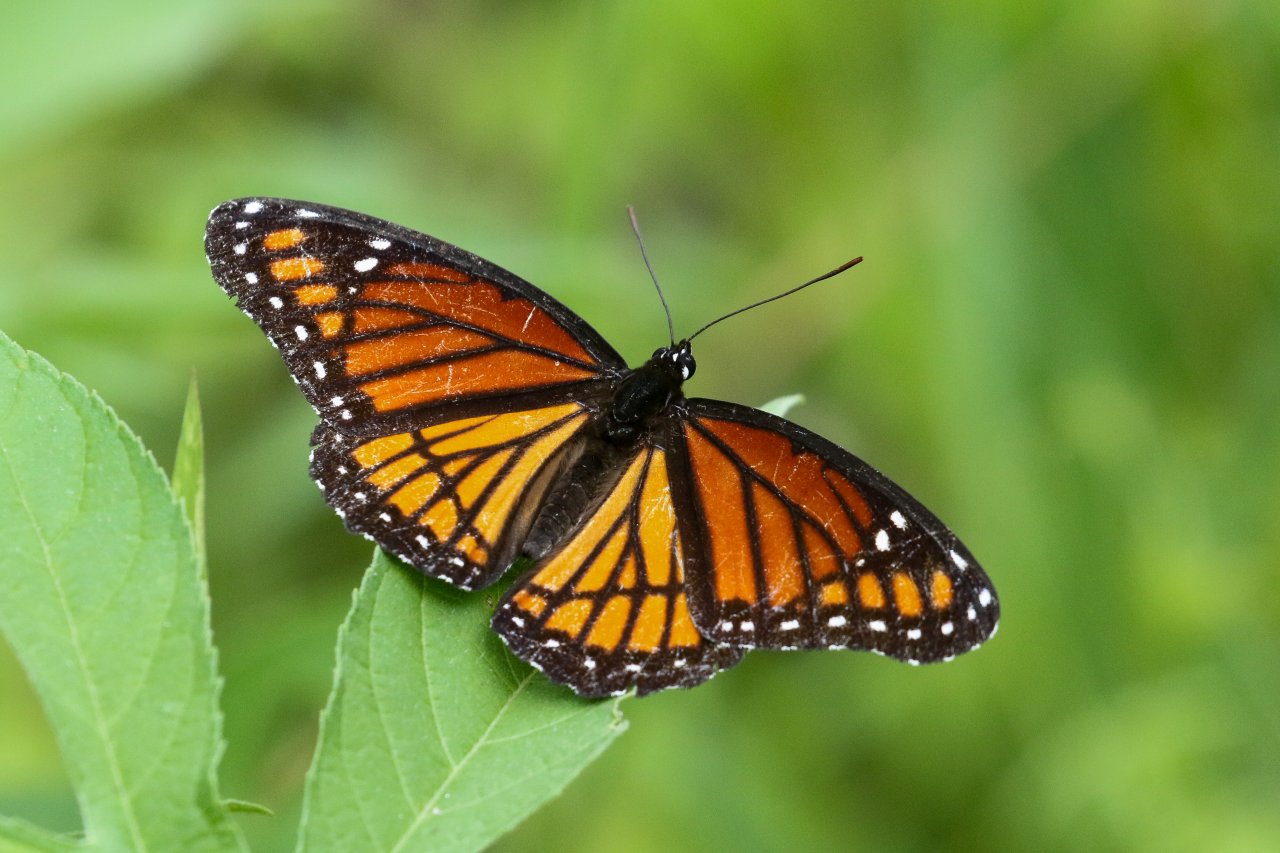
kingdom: Animalia
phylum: Arthropoda
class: Insecta
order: Lepidoptera
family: Nymphalidae
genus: Limenitis
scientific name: Limenitis archippus
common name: Viceroy
